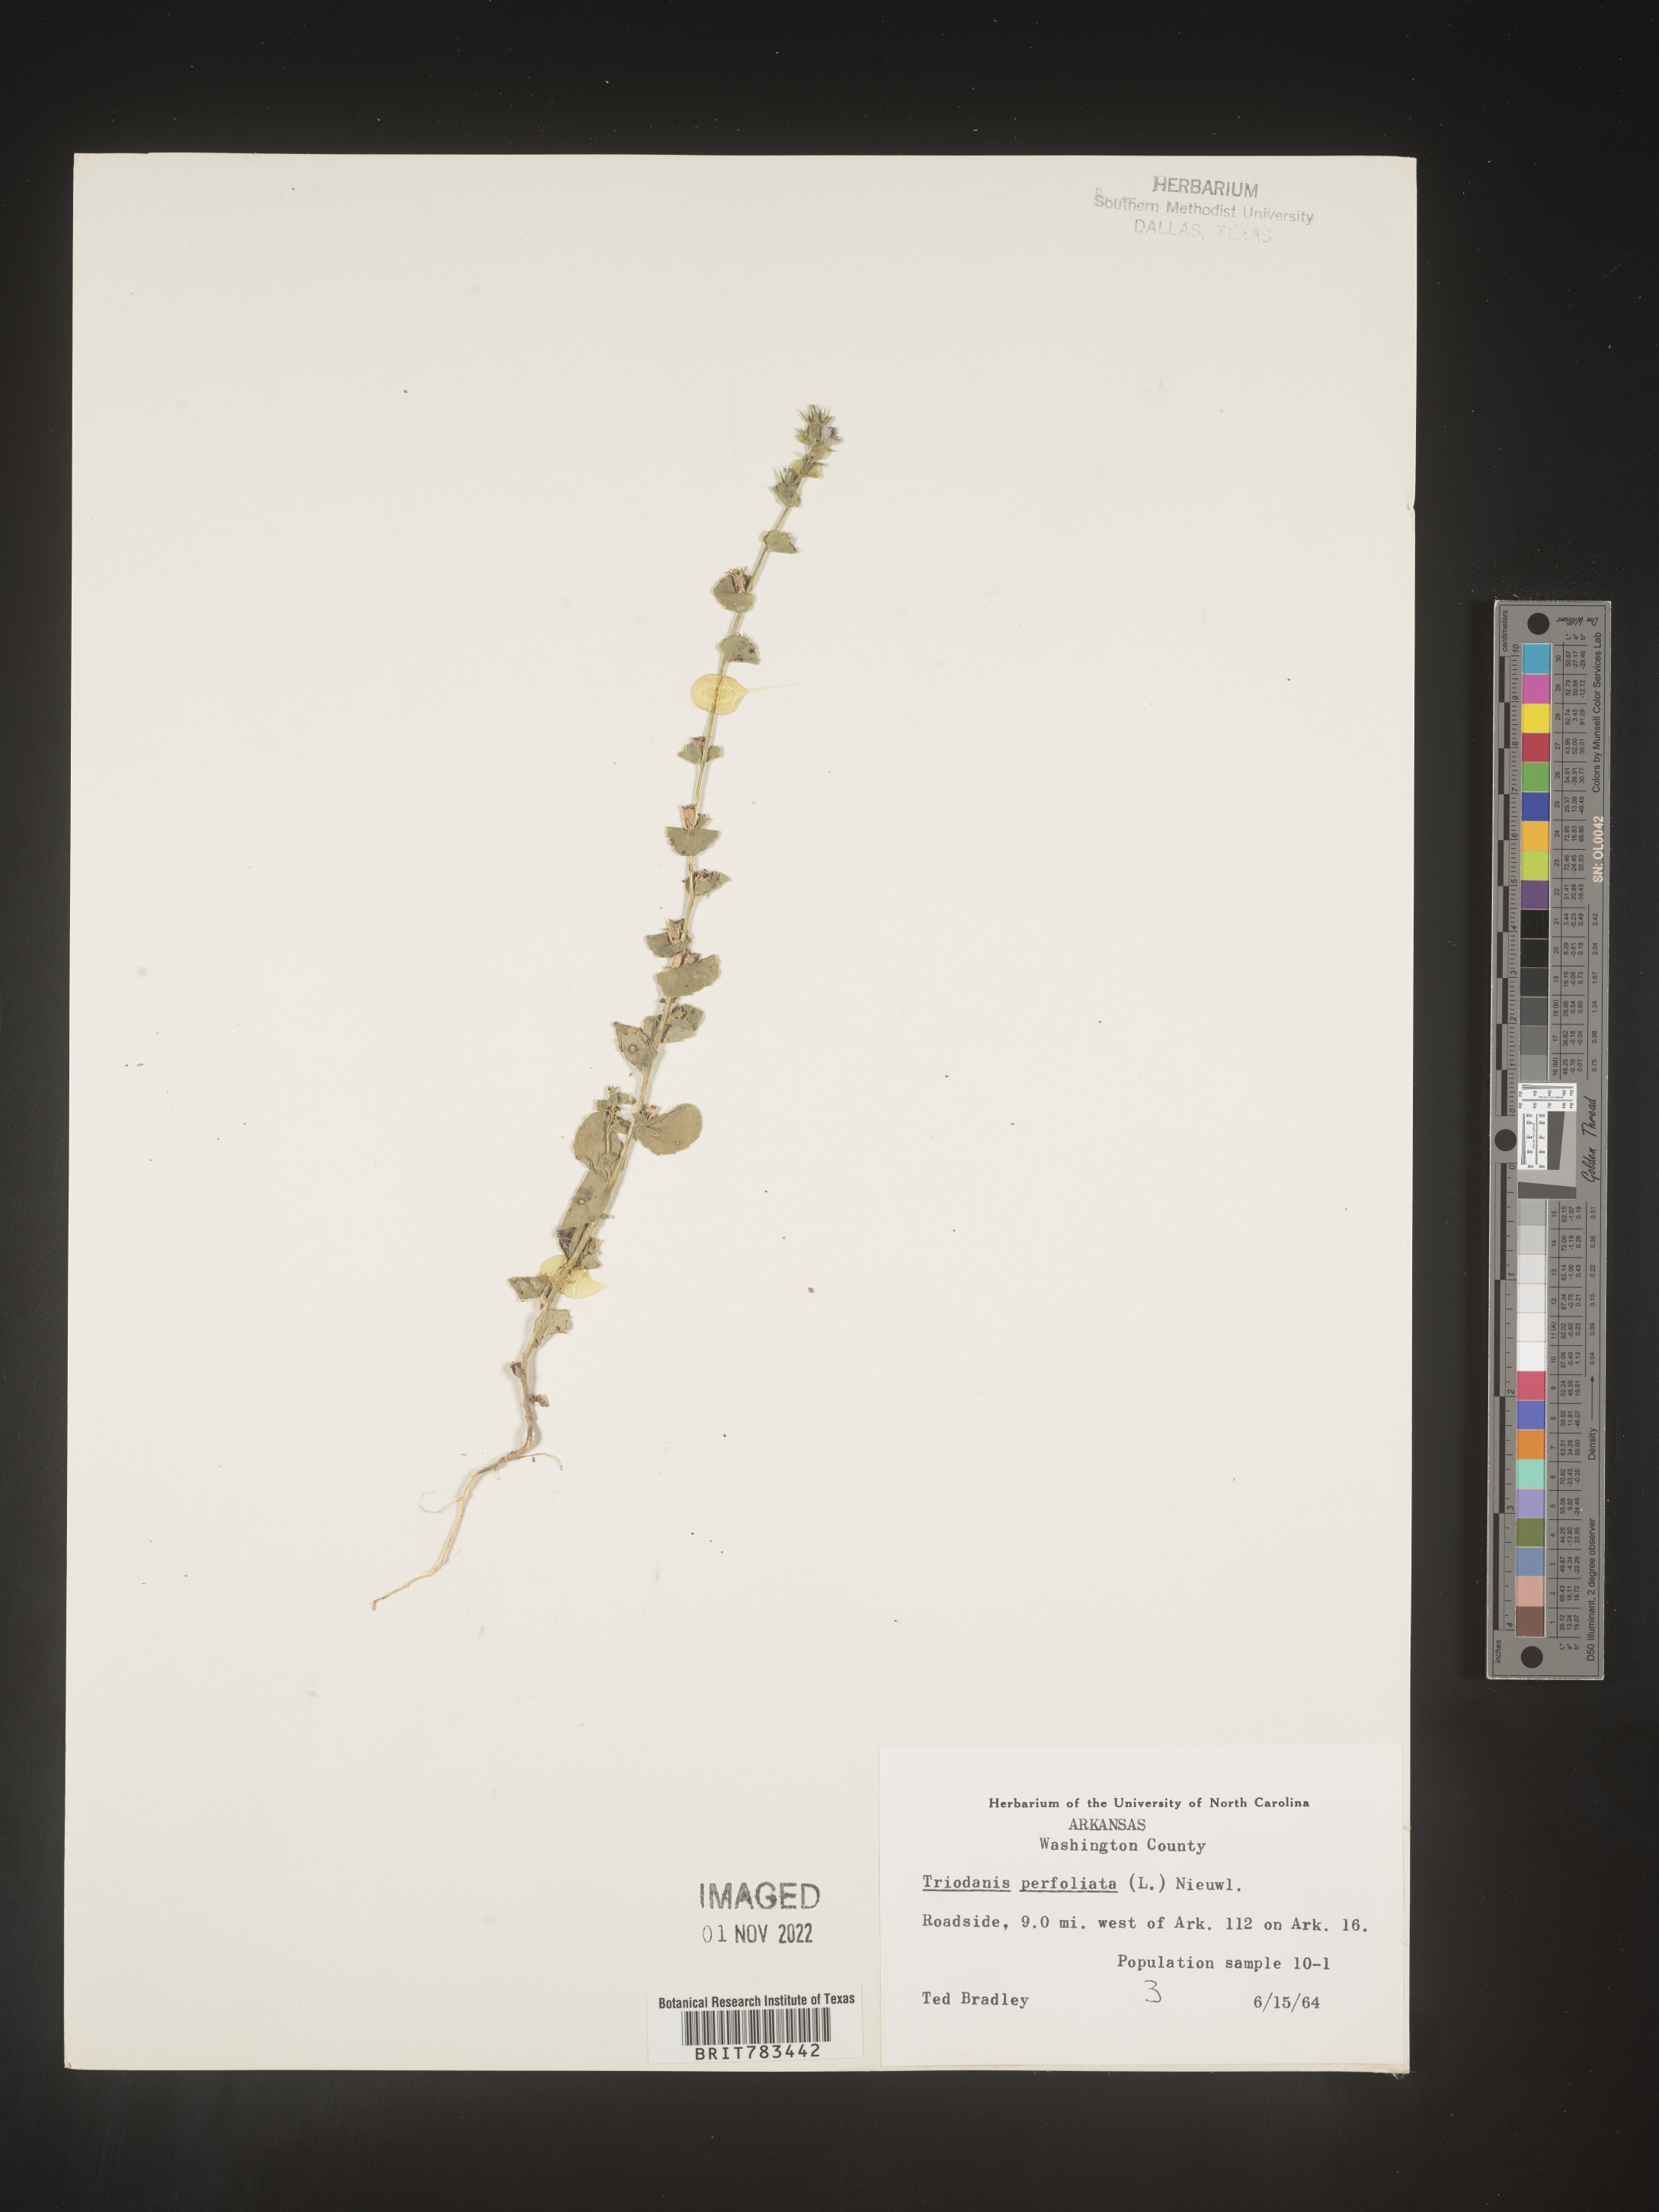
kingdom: Plantae
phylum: Tracheophyta
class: Magnoliopsida
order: Asterales
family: Campanulaceae
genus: Triodanis
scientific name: Triodanis perfoliata
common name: Clasping venus' looking-glass
